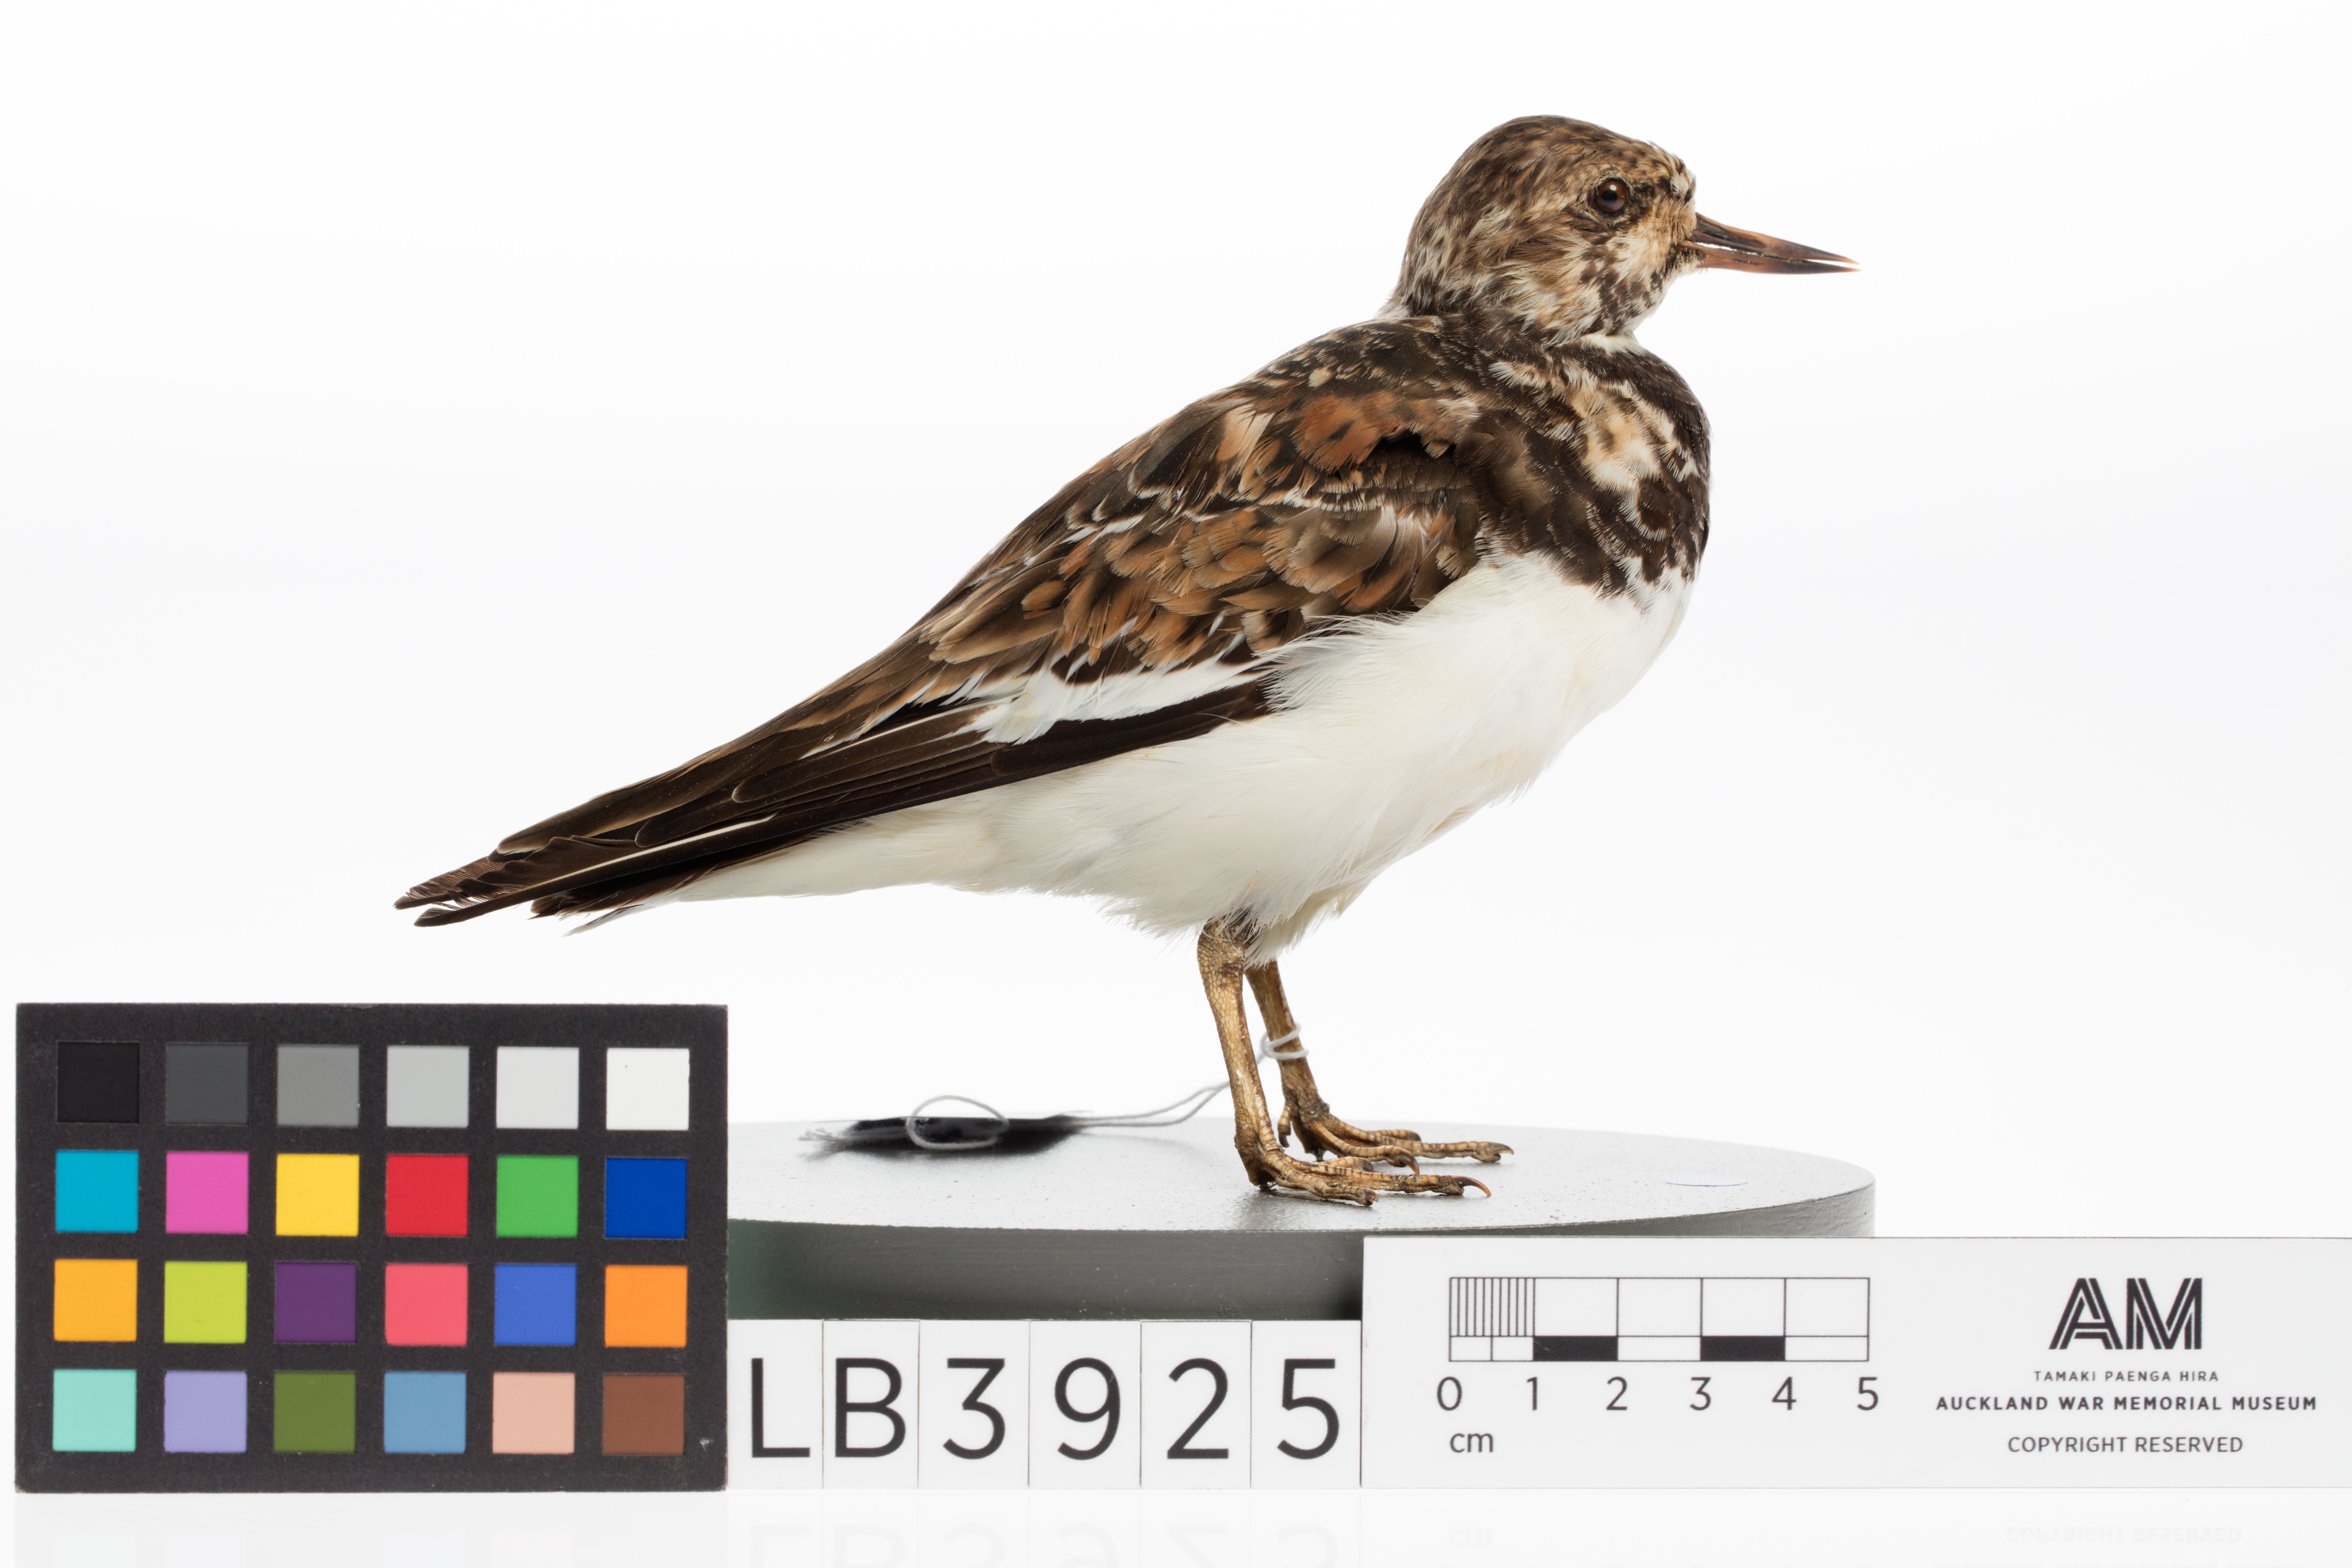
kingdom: Animalia
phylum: Chordata
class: Aves
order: Charadriiformes
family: Scolopacidae
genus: Arenaria
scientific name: Arenaria interpres
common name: Ruddy turnstone
